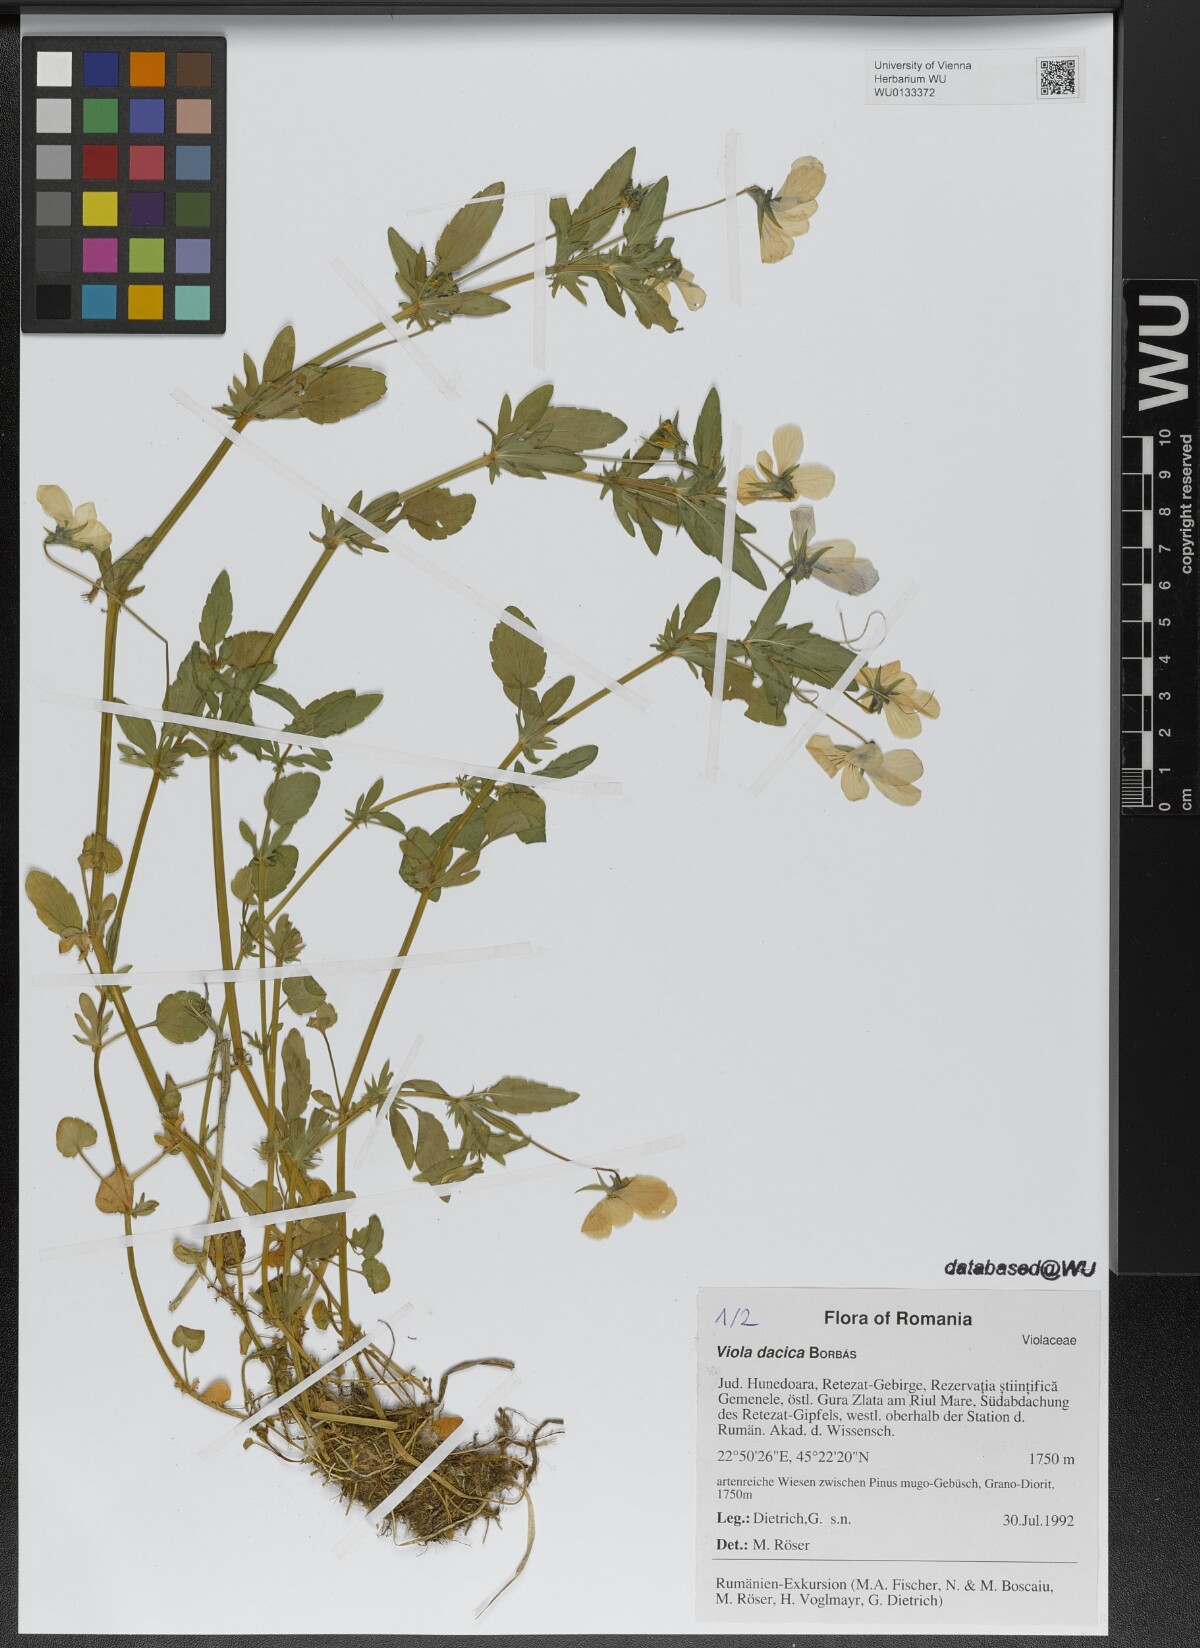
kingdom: Plantae
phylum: Tracheophyta
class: Magnoliopsida
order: Malpighiales
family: Violaceae
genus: Viola
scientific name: Viola dacica
